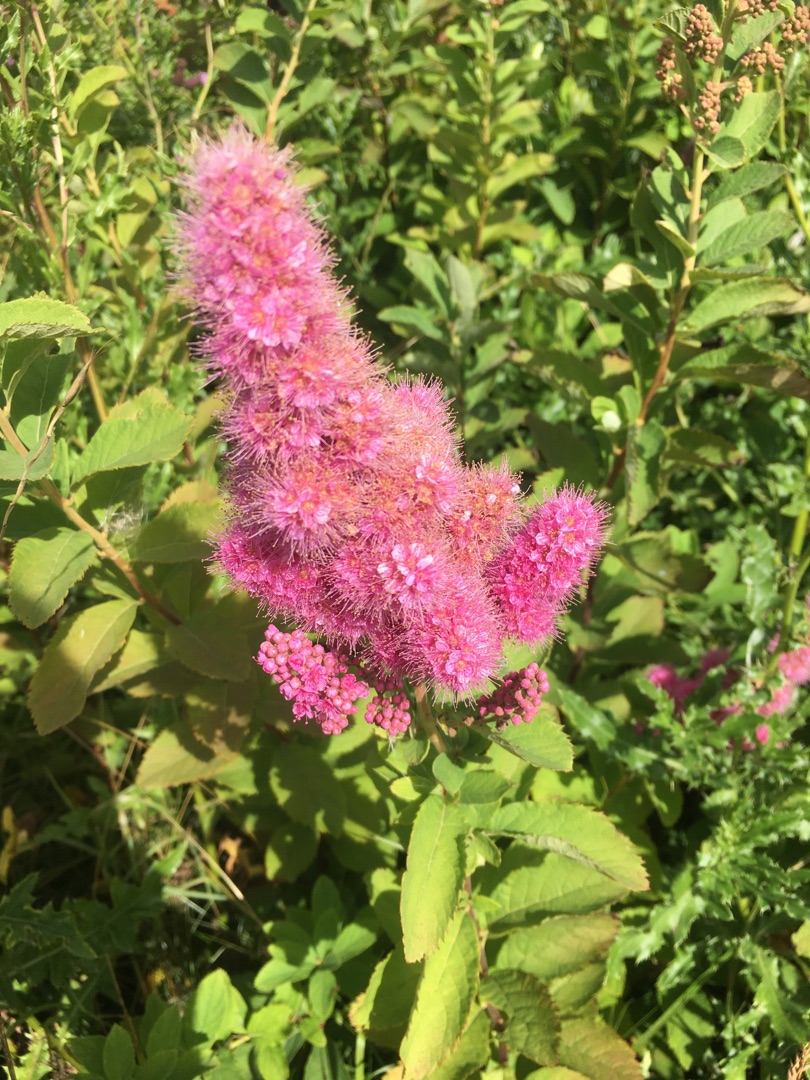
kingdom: Plantae
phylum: Tracheophyta
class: Magnoliopsida
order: Rosales
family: Rosaceae
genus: Spiraea
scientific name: Spiraea billardii
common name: Klase-spiræa
